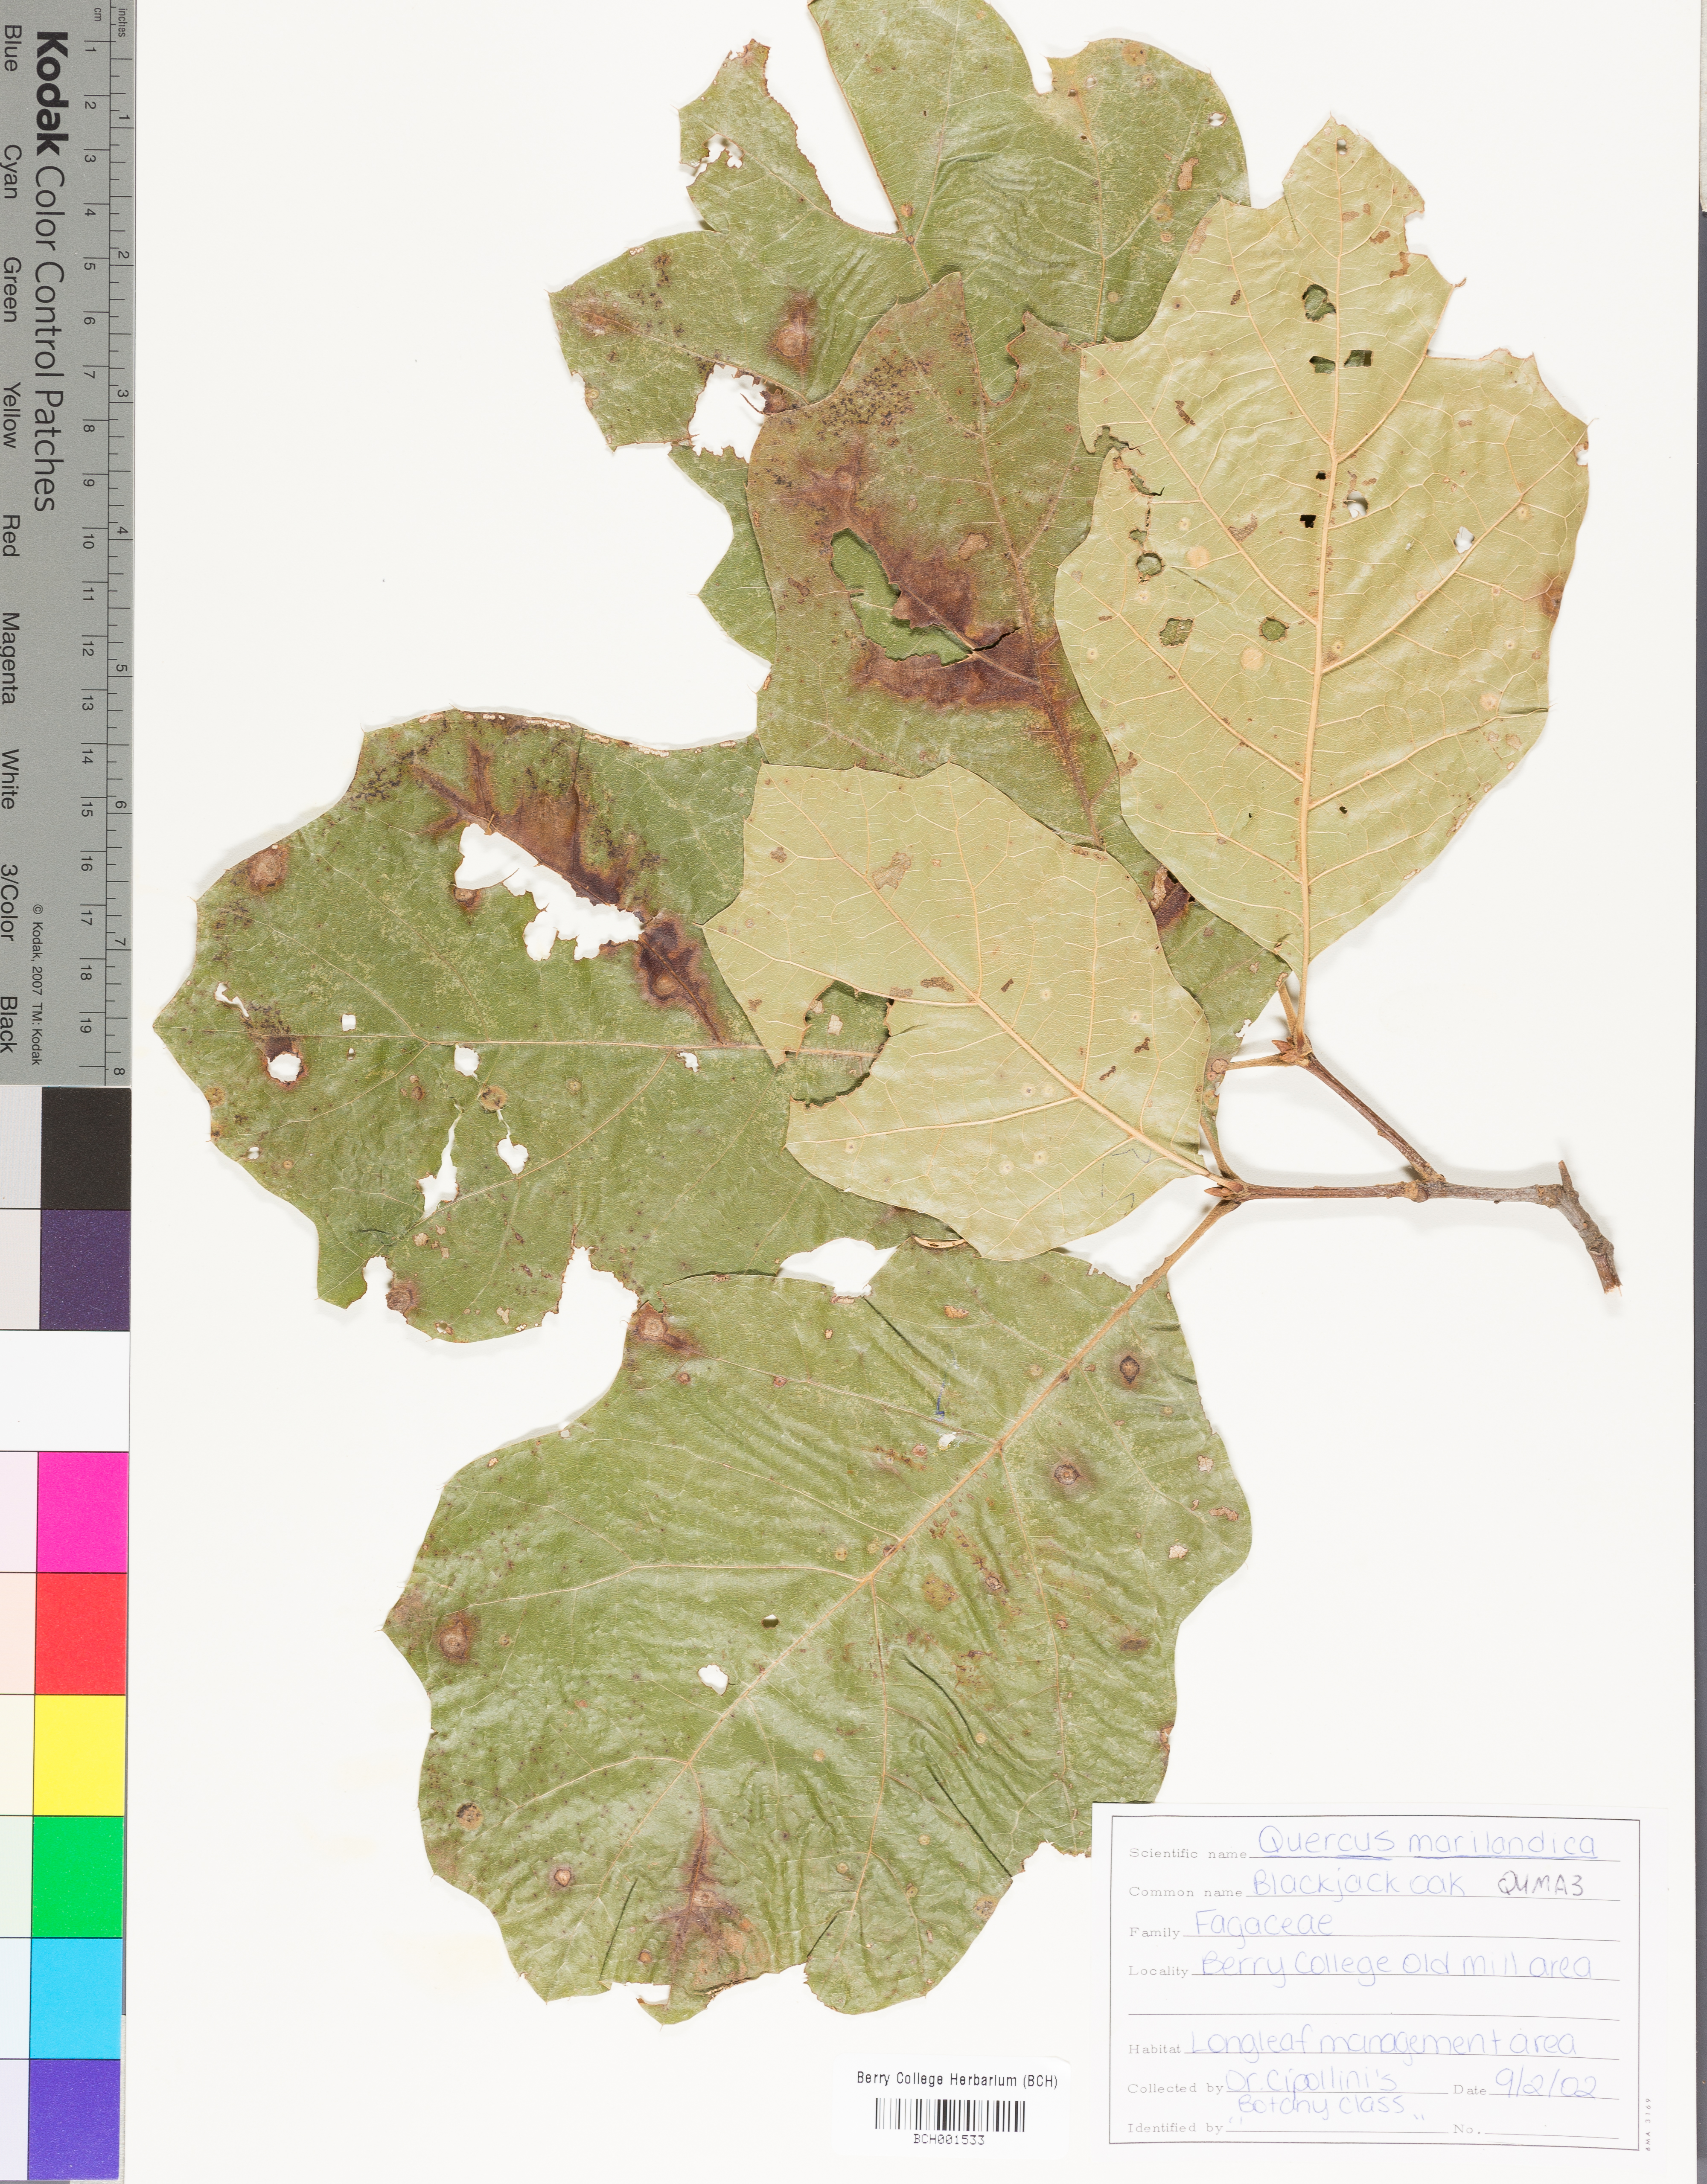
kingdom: Plantae
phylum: Tracheophyta
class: Magnoliopsida
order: Fagales
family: Fagaceae
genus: Quercus
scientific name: Quercus marilandica
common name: Blackjack oak
